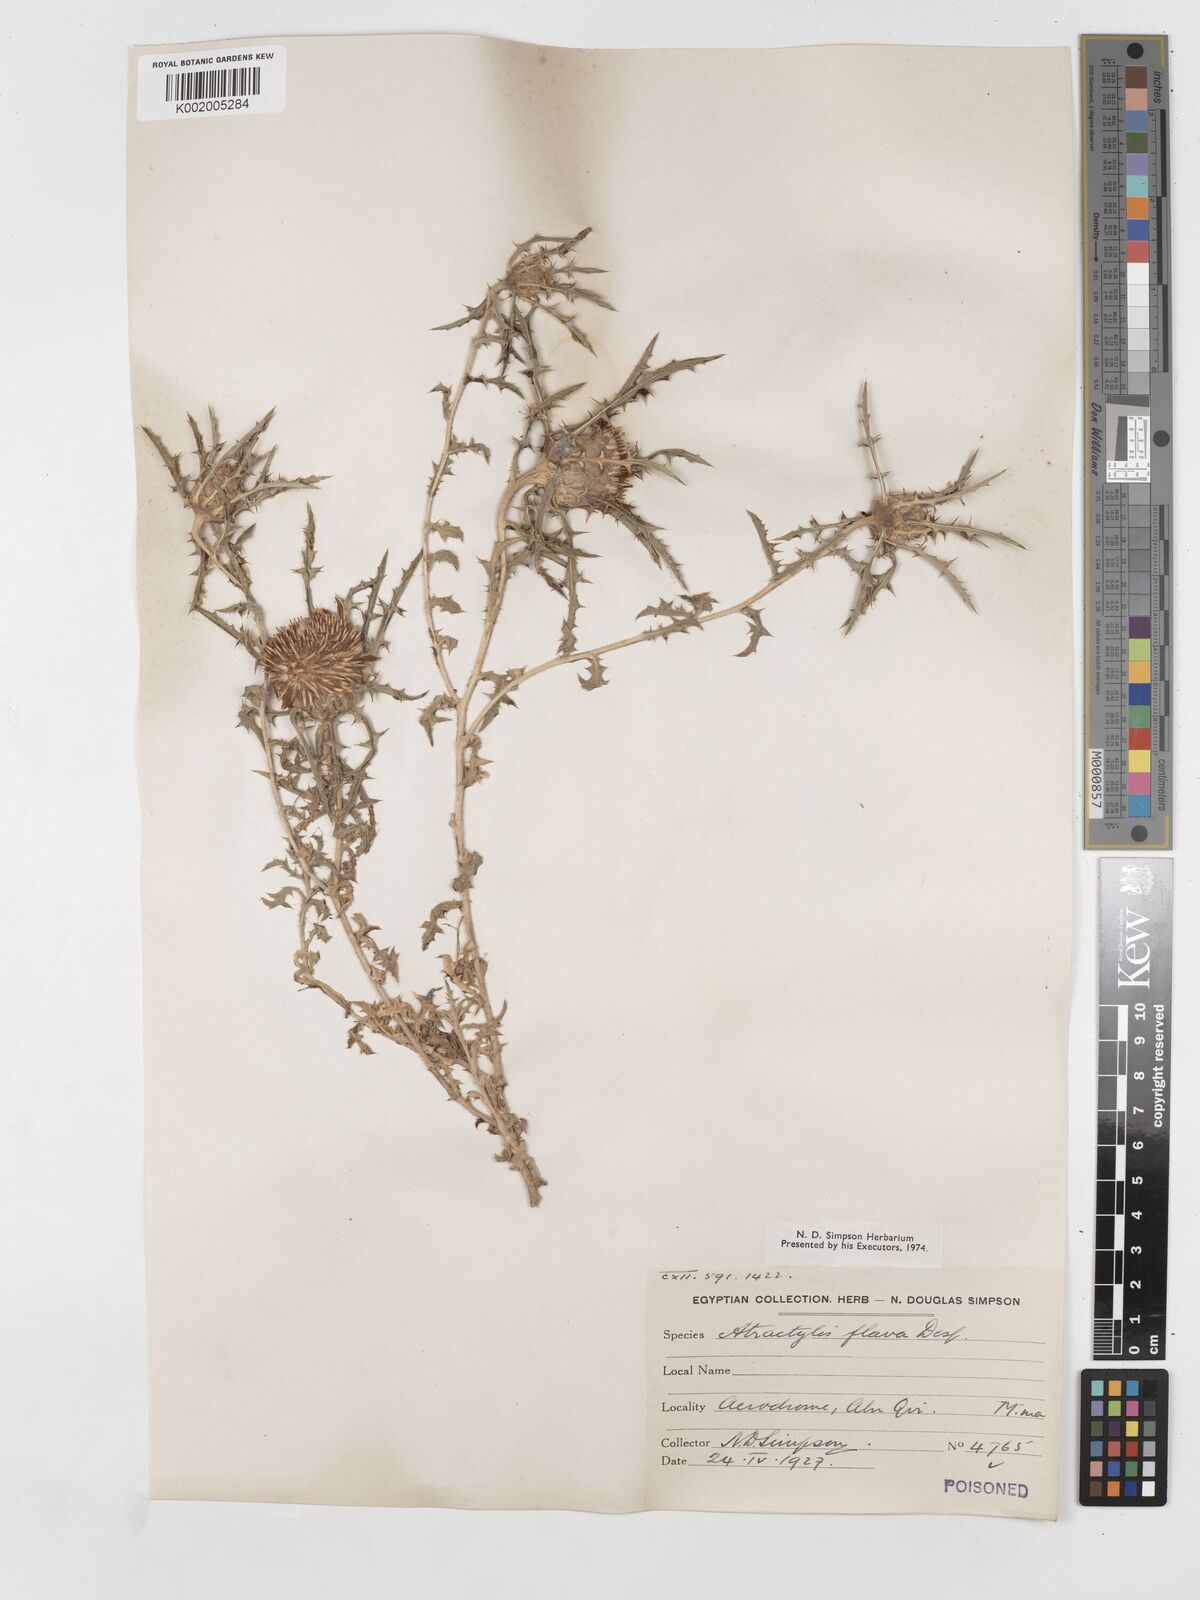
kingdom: Plantae
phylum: Tracheophyta
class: Magnoliopsida
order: Asterales
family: Asteraceae
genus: Atractylis
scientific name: Atractylis carduus
